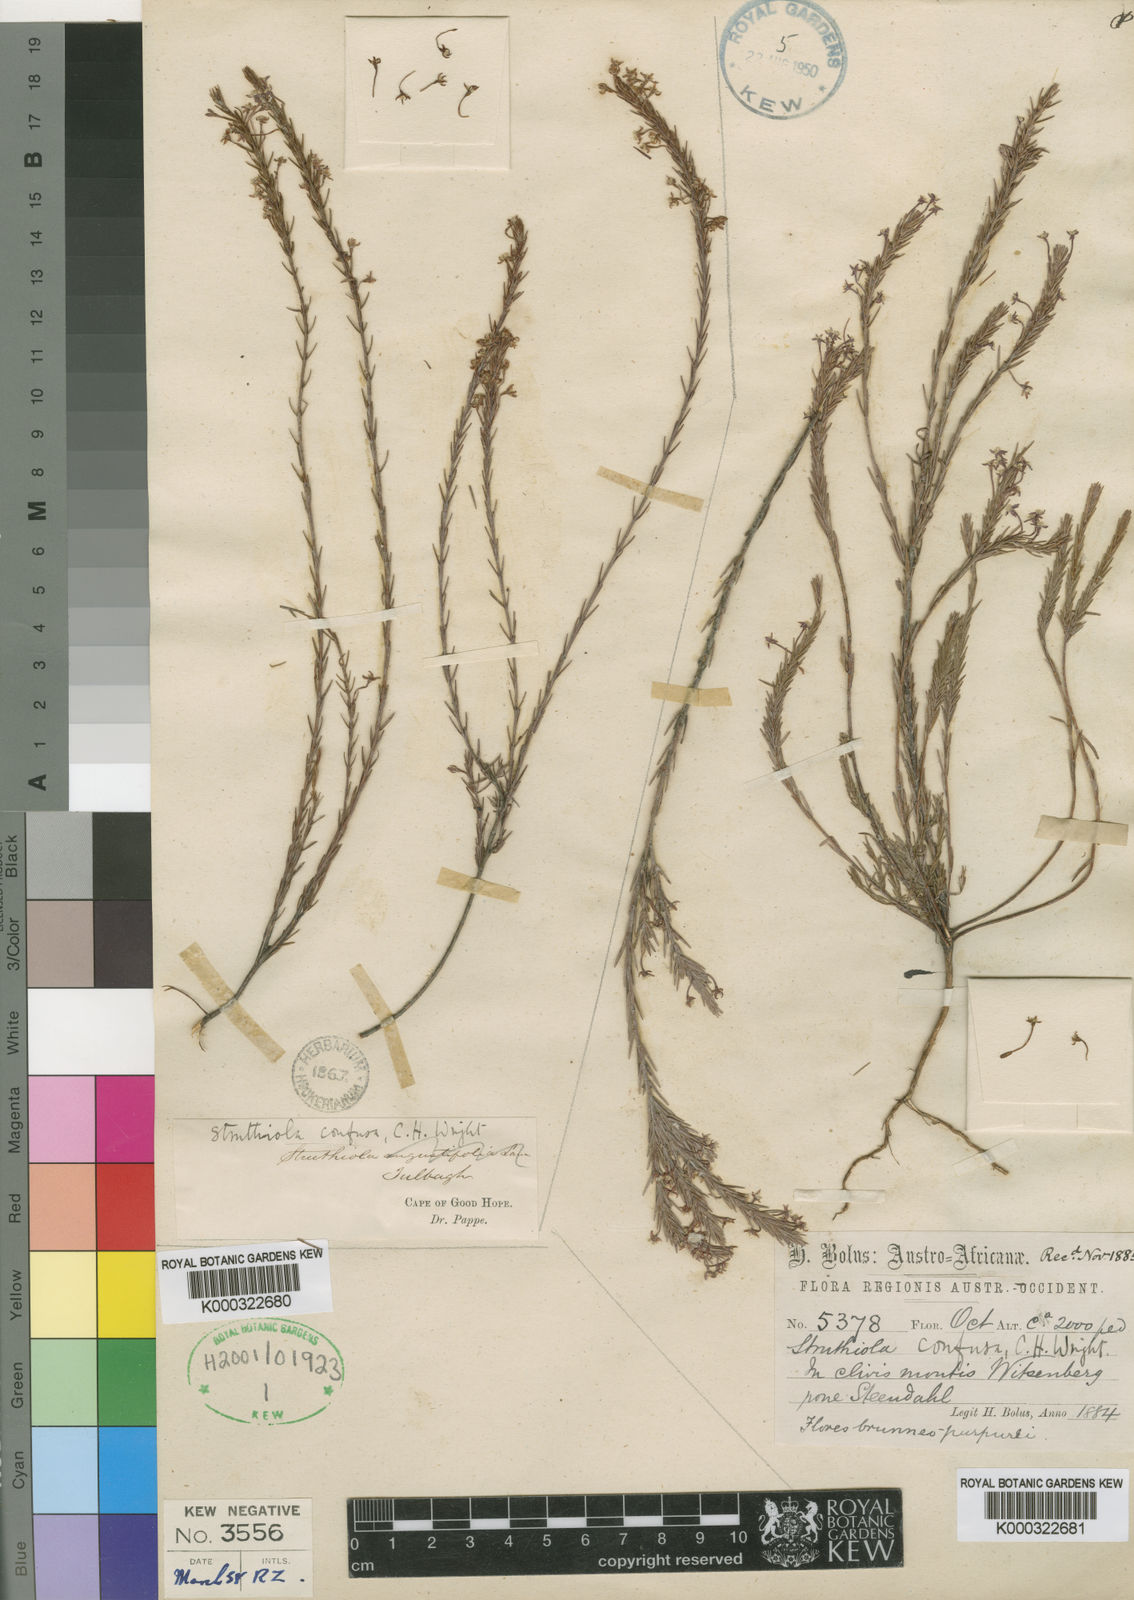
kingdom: Plantae
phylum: Tracheophyta
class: Magnoliopsida
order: Malvales
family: Thymelaeaceae
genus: Struthiola
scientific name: Struthiola confusa
